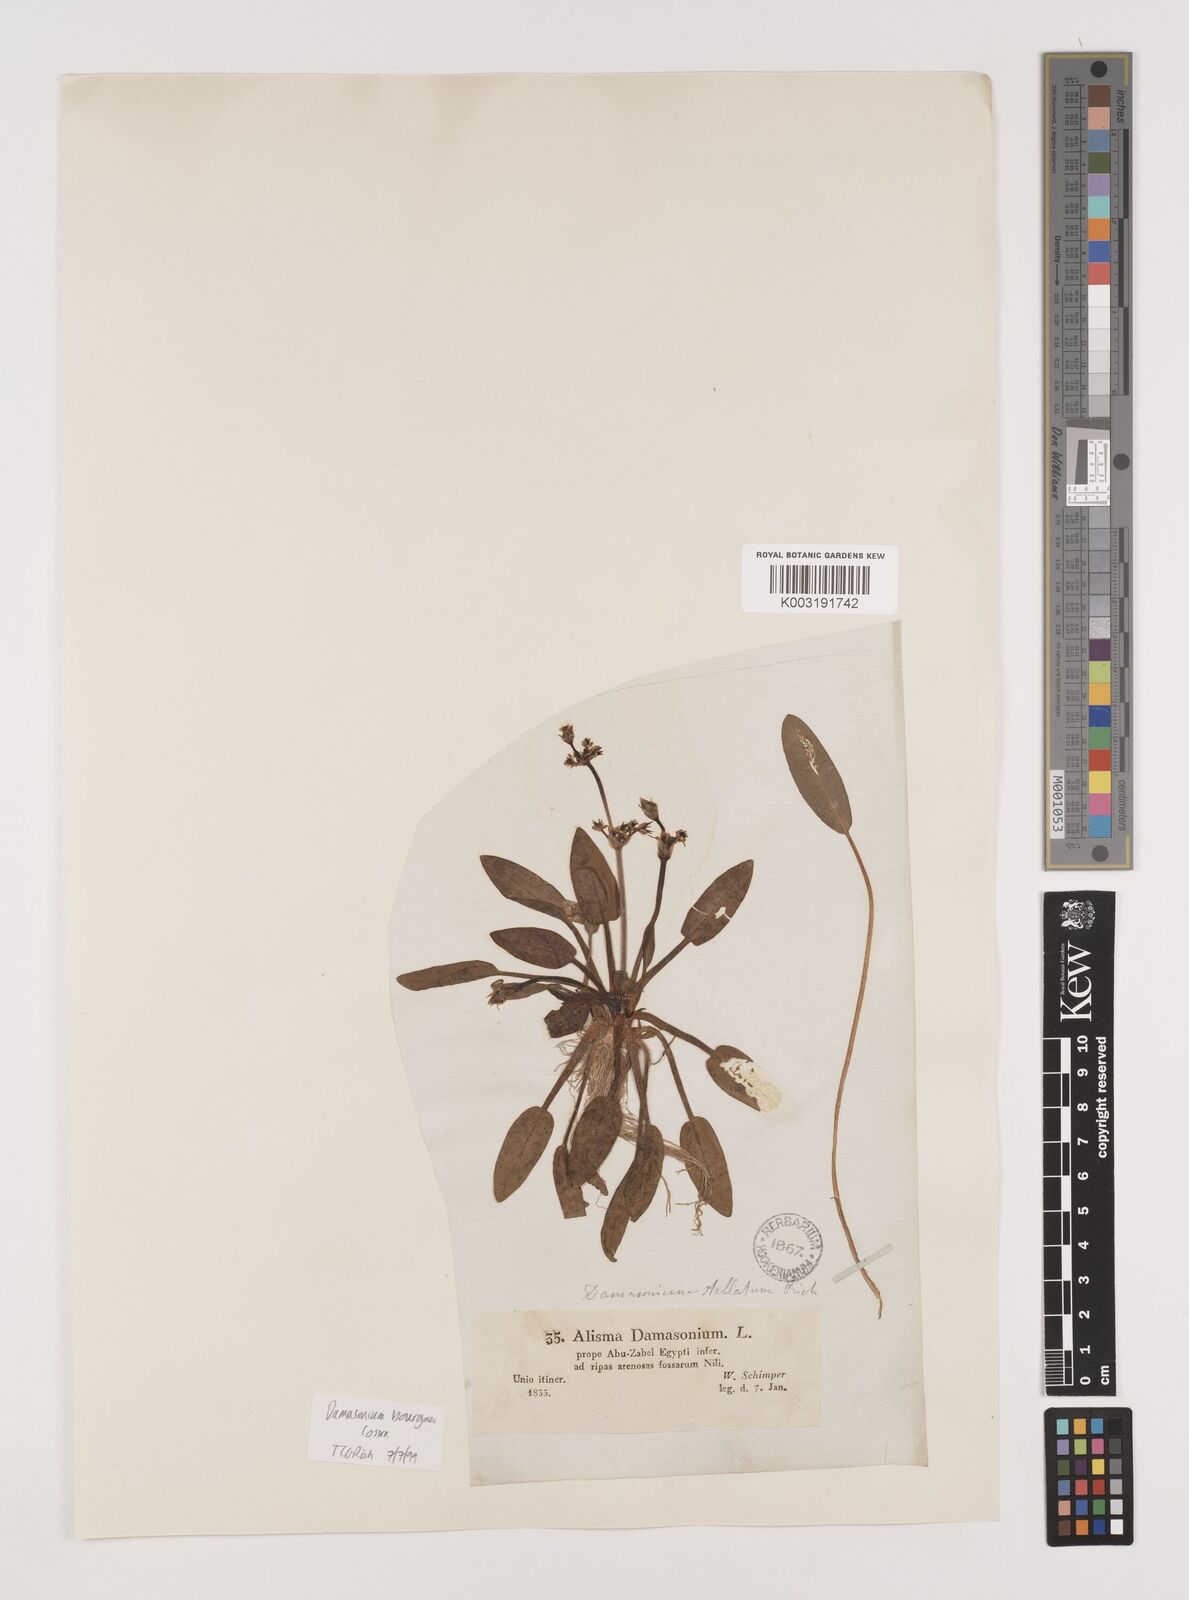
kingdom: Plantae
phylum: Tracheophyta
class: Liliopsida
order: Alismatales
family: Alismataceae
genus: Damasonium
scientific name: Damasonium alisma
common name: Starfruit
